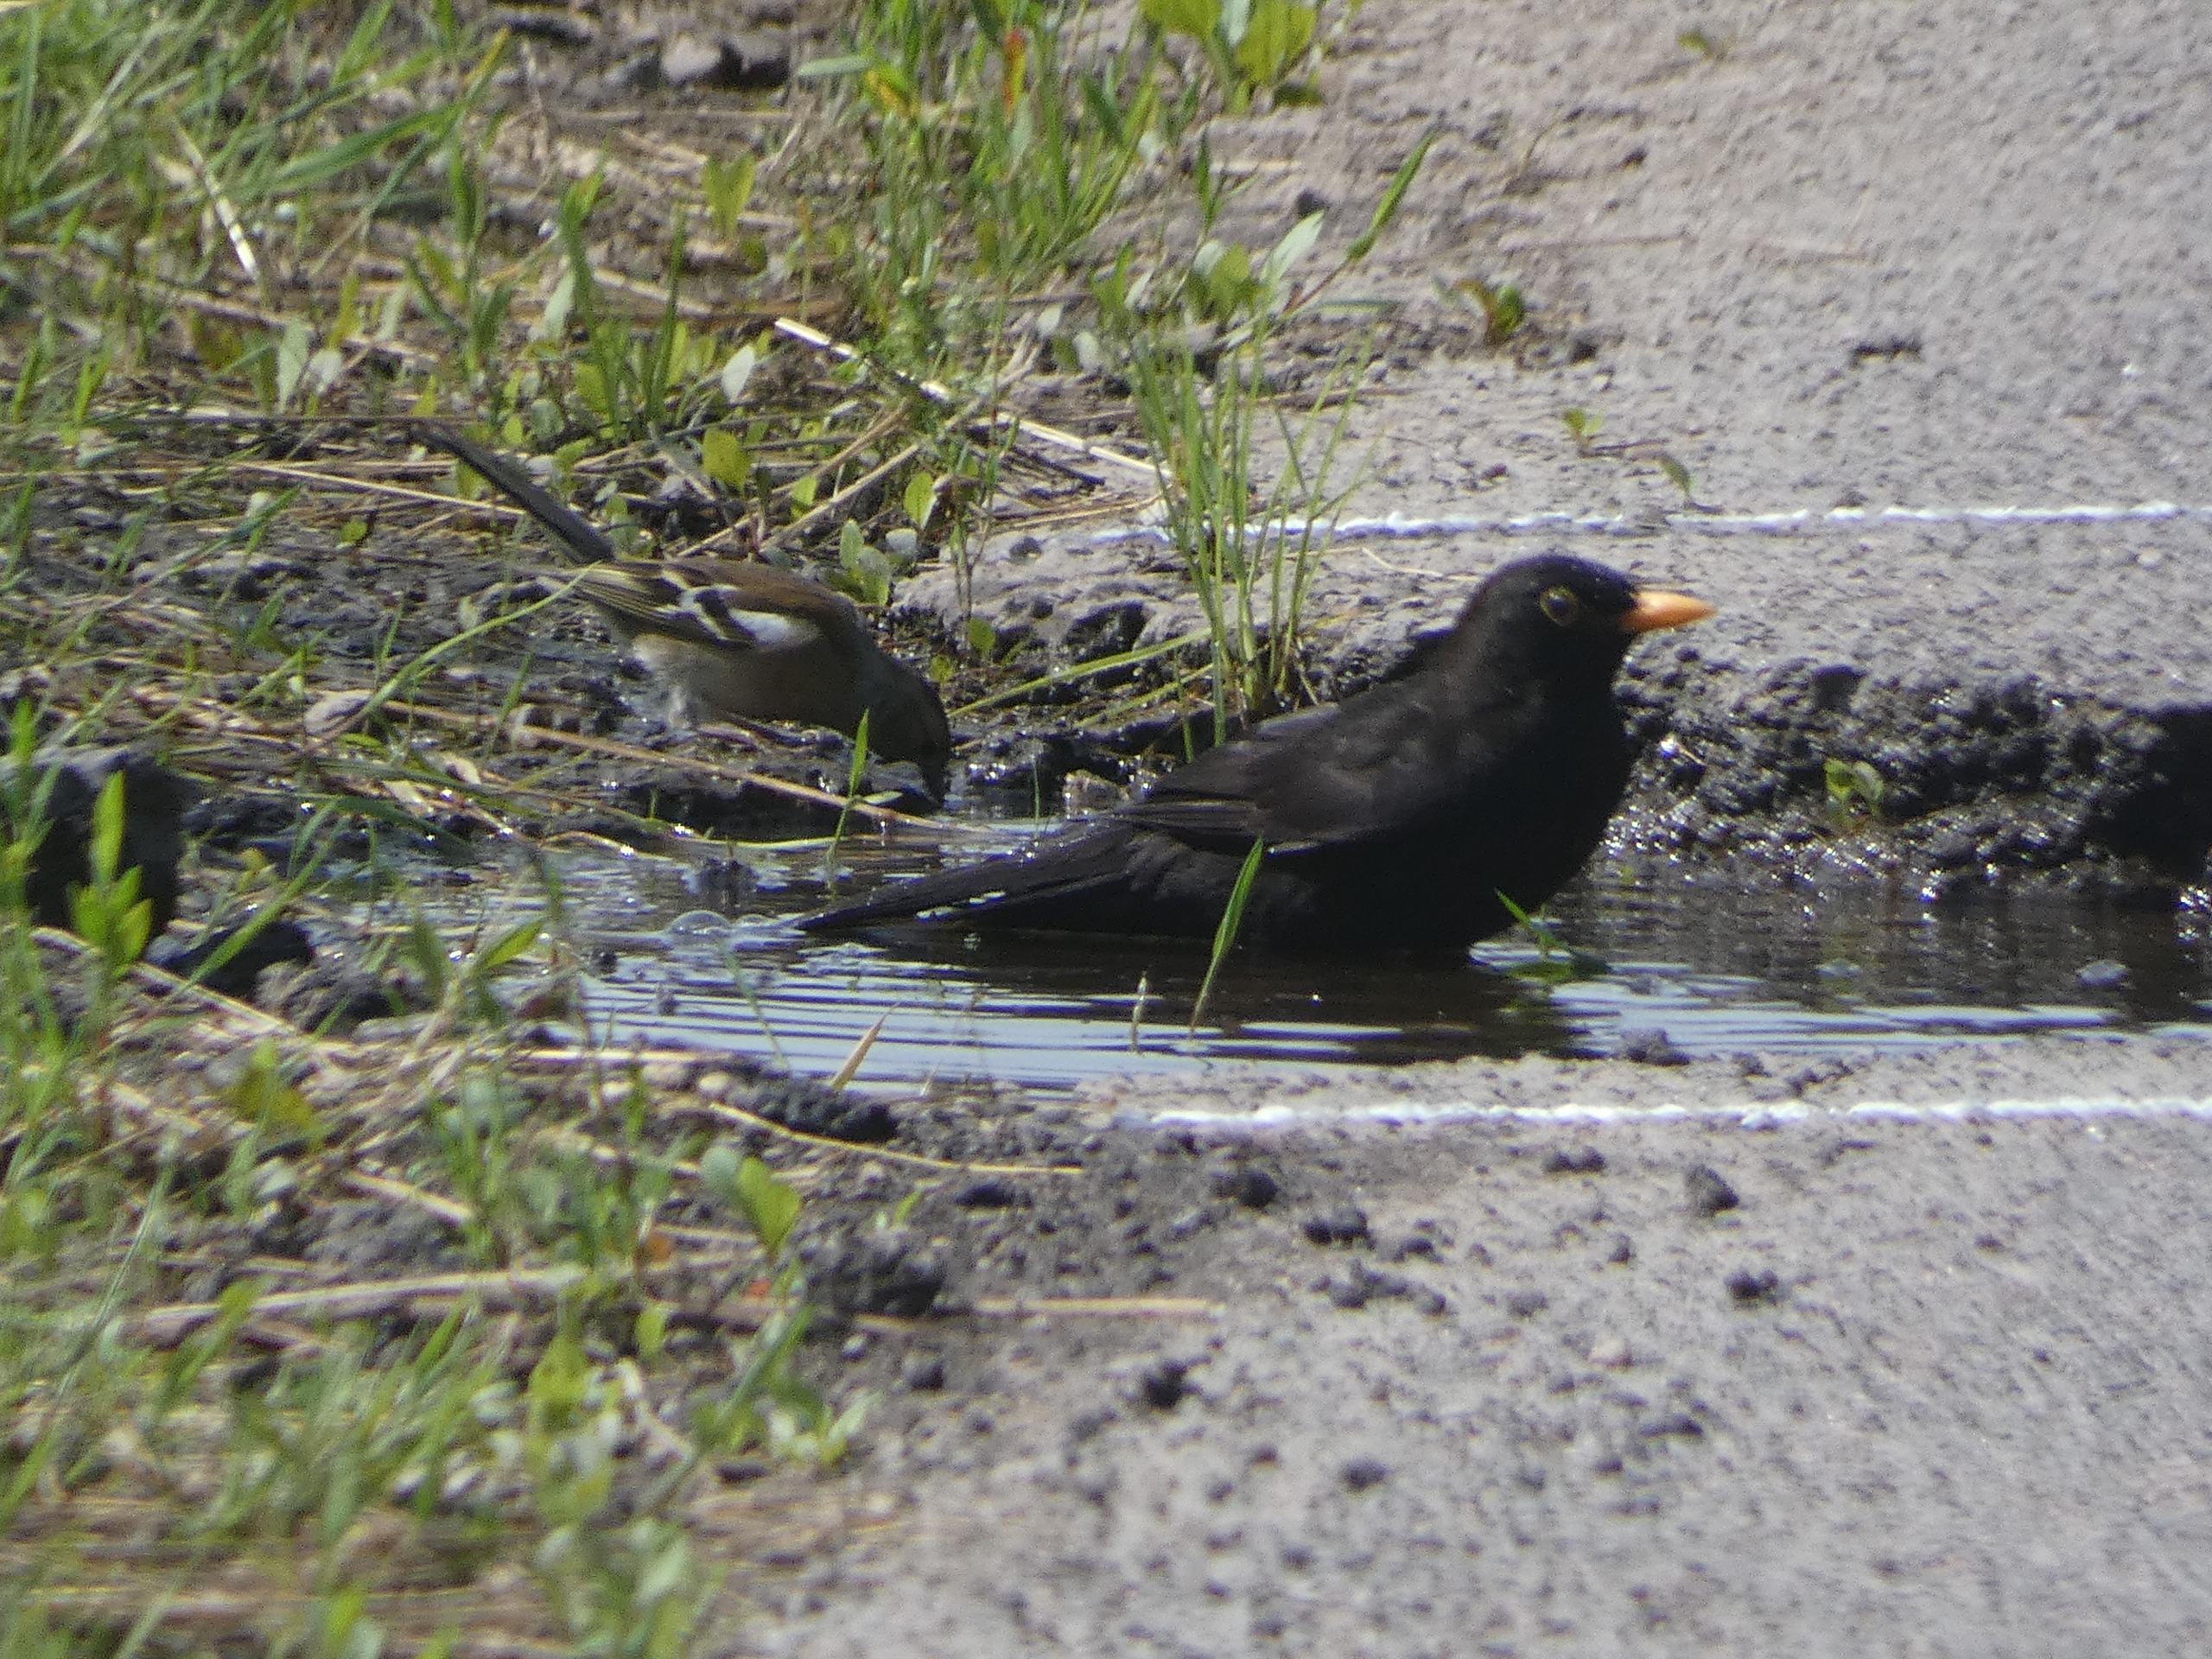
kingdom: Animalia
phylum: Chordata
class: Aves
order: Passeriformes
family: Fringillidae
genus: Fringilla
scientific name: Fringilla coelebs
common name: Bogfinke
